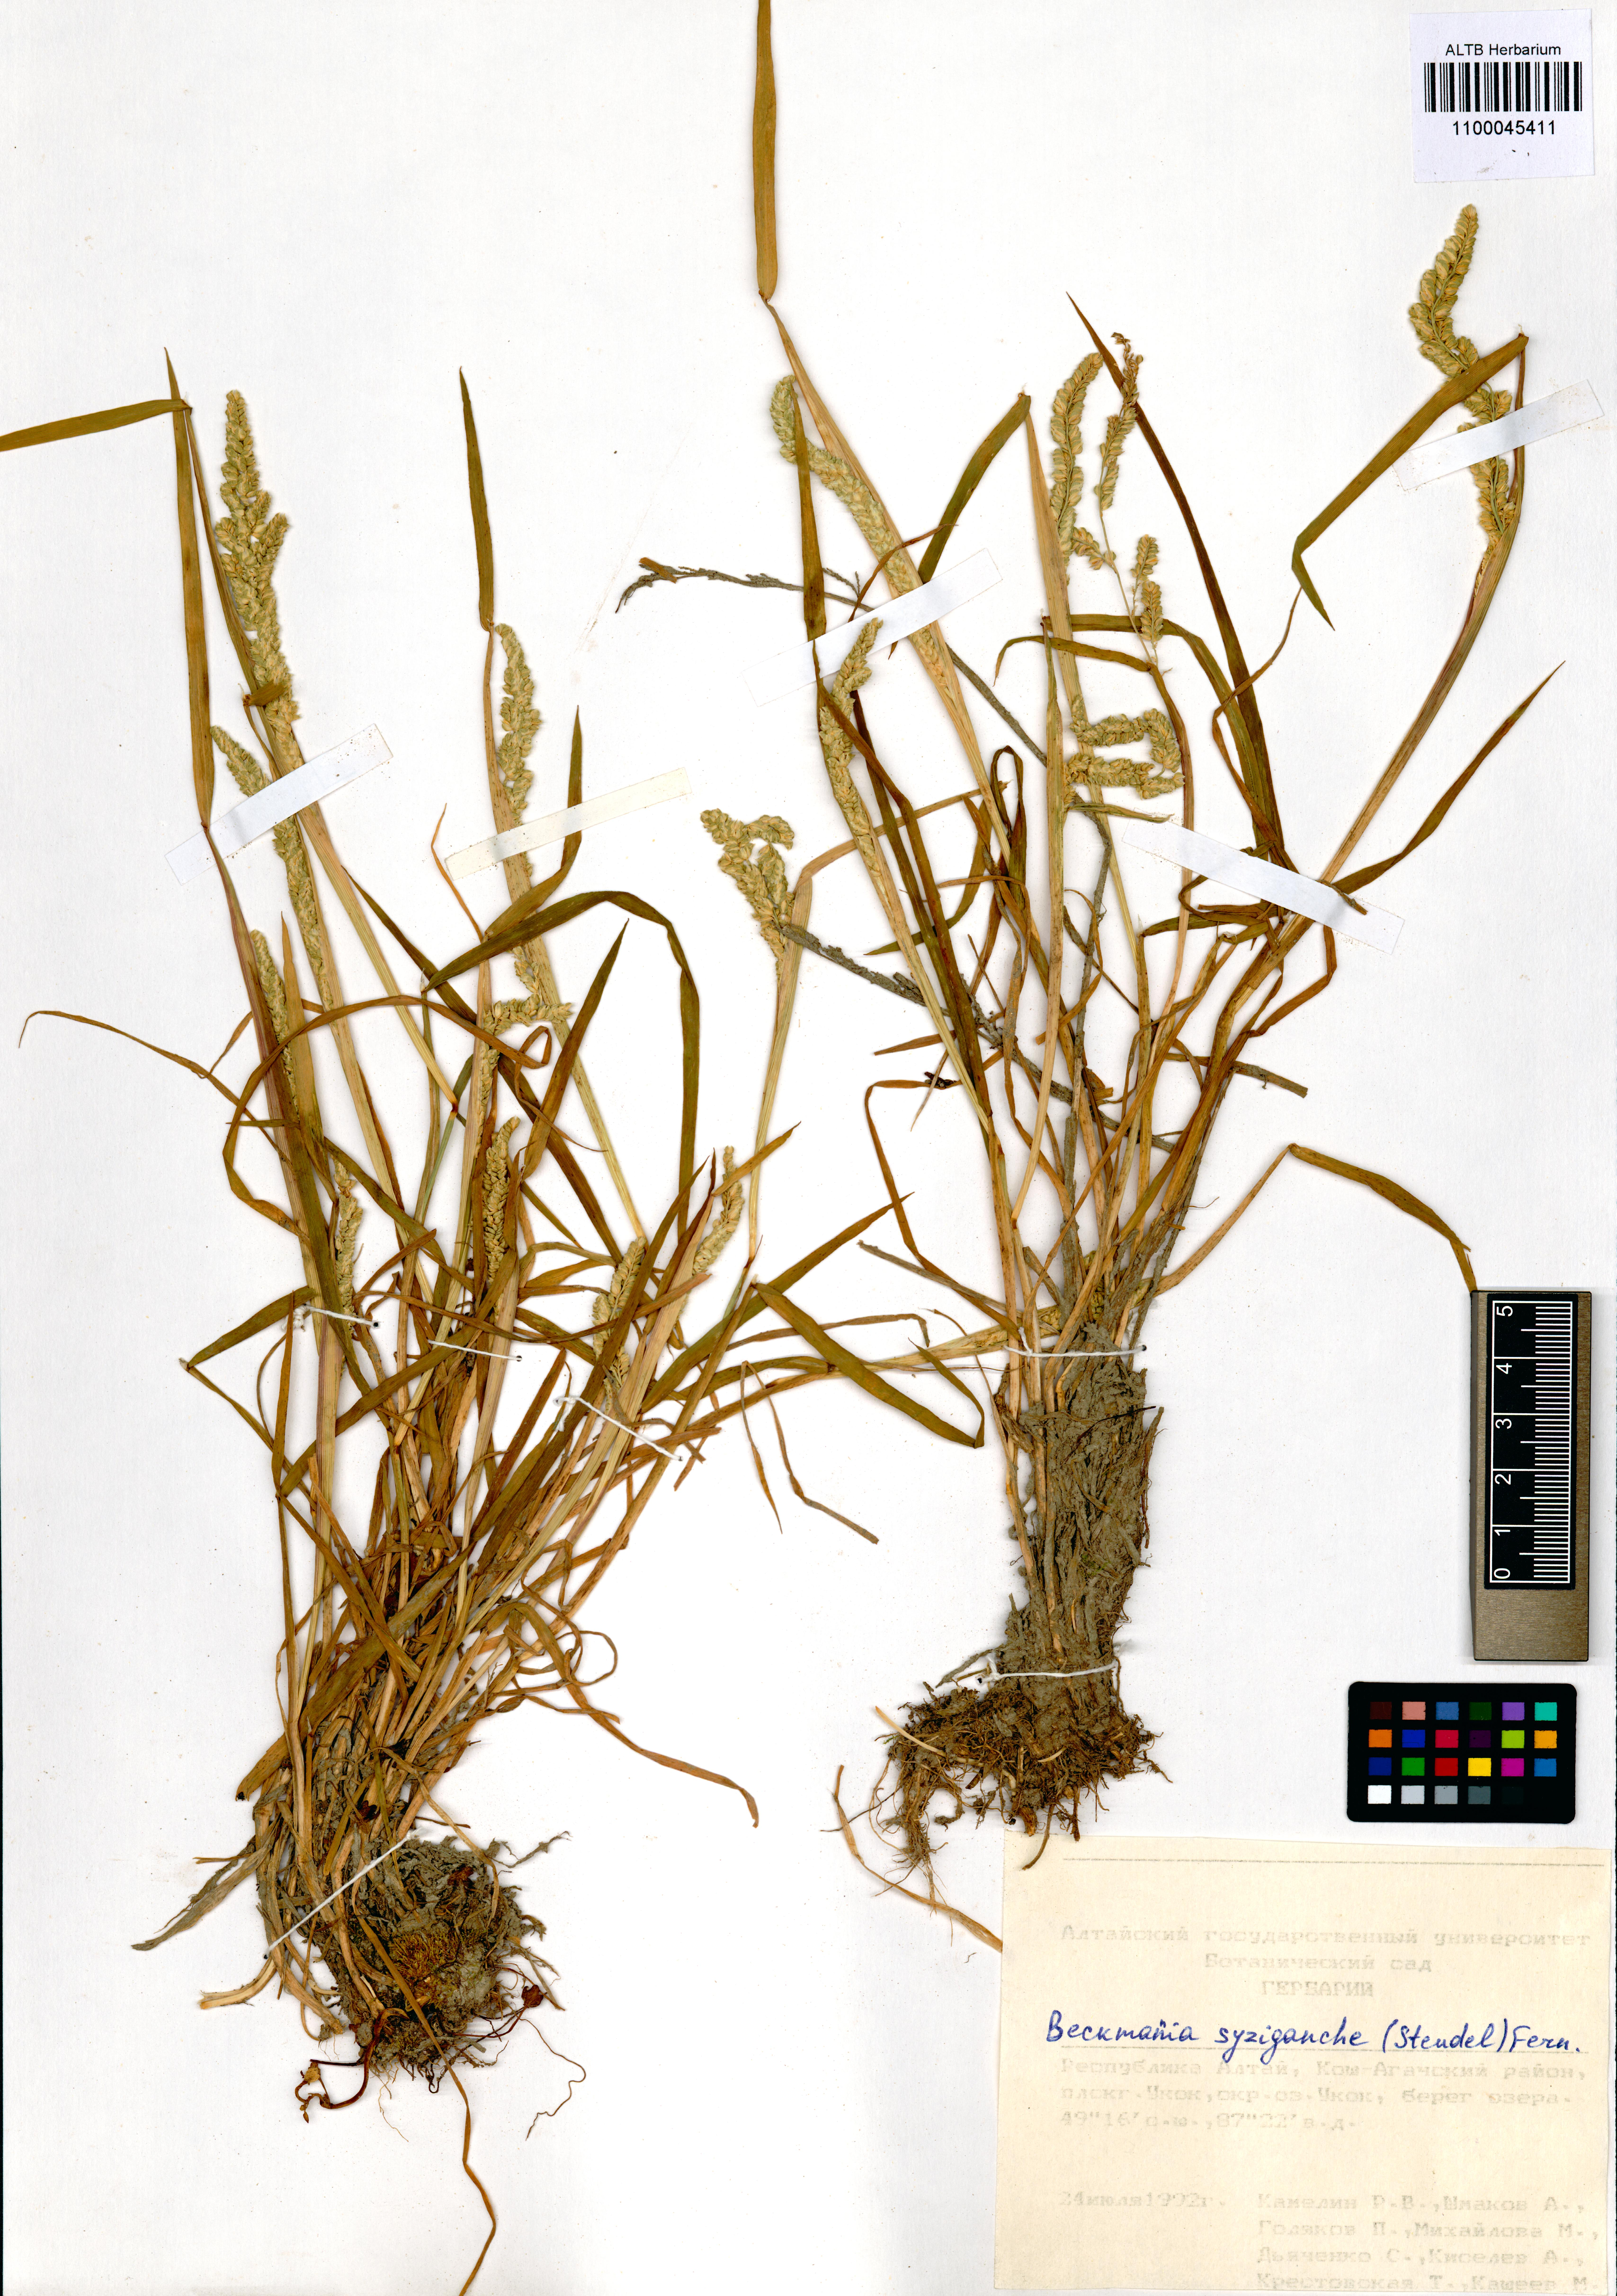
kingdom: Plantae
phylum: Tracheophyta
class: Liliopsida
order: Poales
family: Poaceae
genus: Beckmannia
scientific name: Beckmannia syzigachne
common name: American slough-grass
